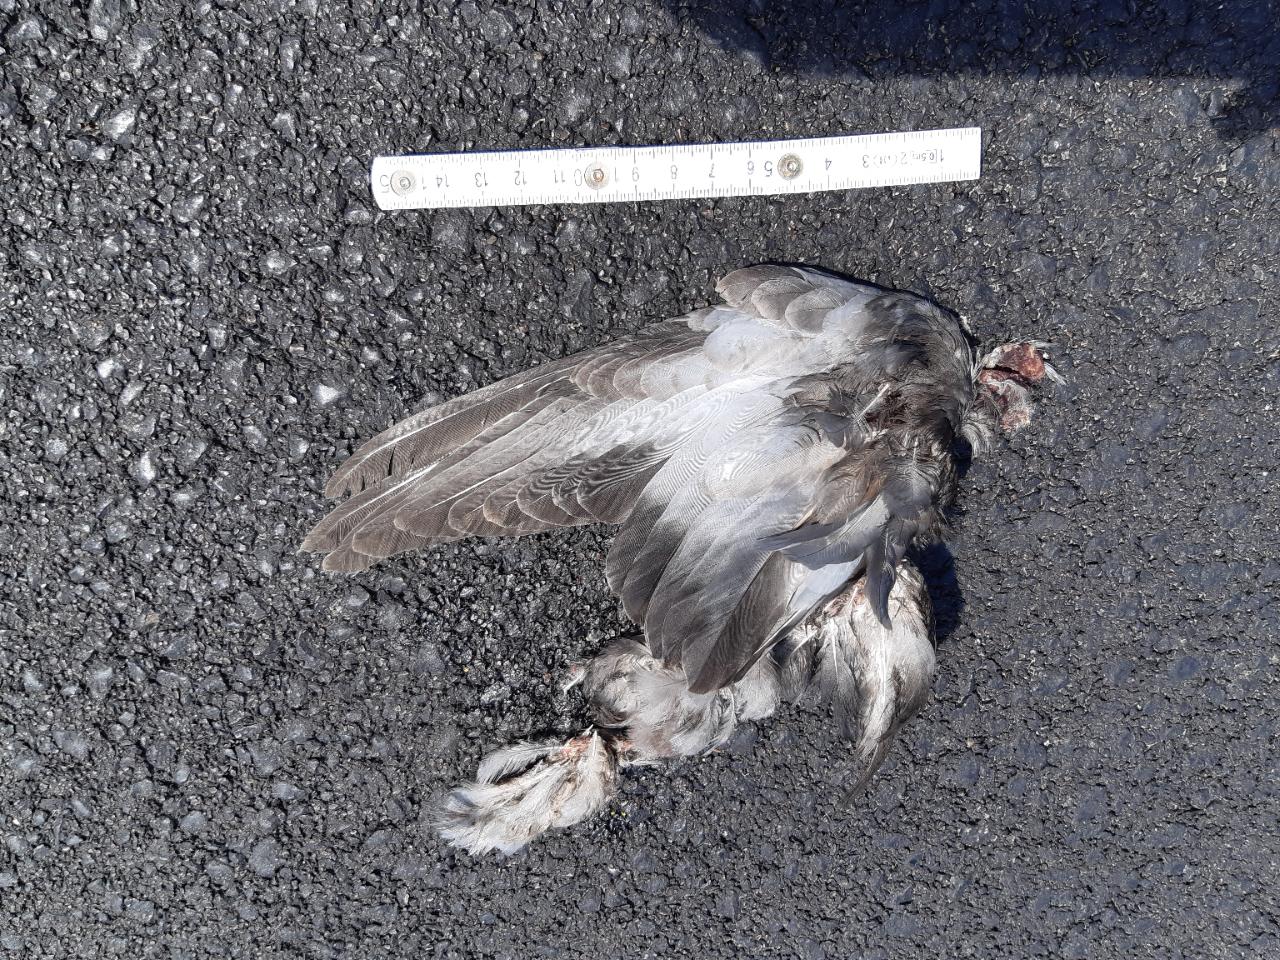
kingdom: Animalia
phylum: Chordata
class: Aves
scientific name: Aves
